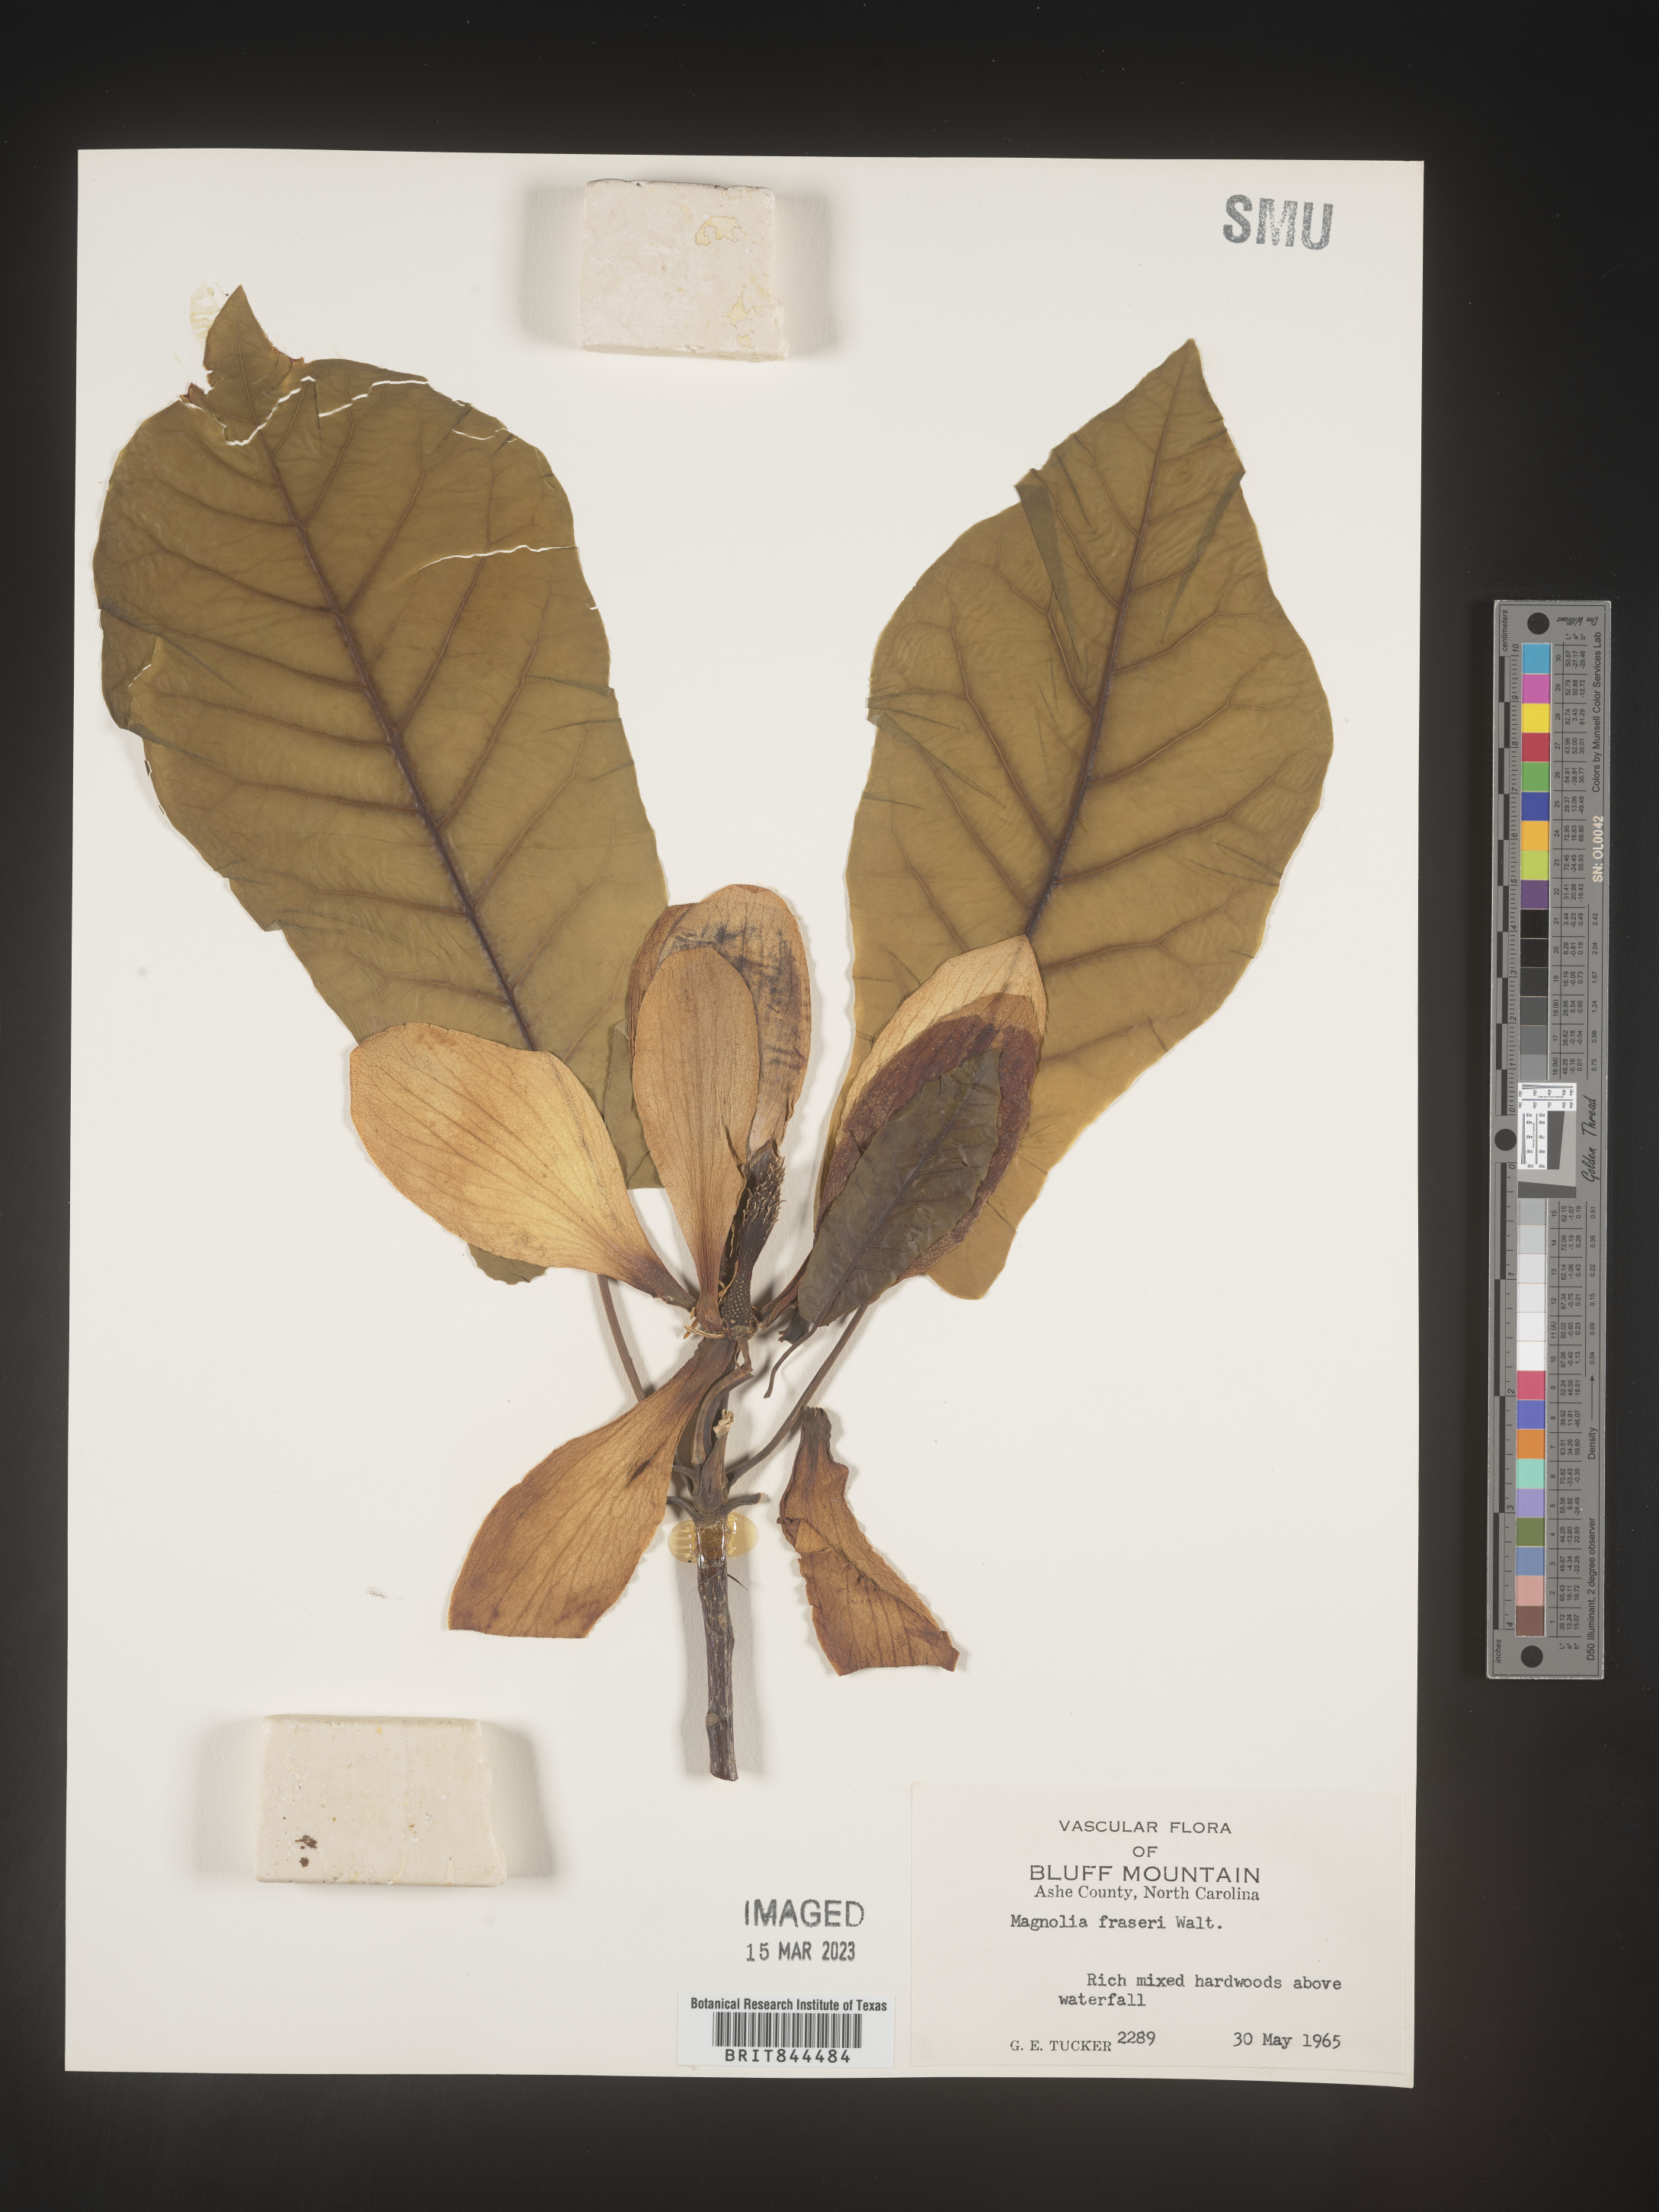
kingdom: Plantae
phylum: Tracheophyta
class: Magnoliopsida
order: Magnoliales
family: Magnoliaceae
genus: Magnolia
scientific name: Magnolia
